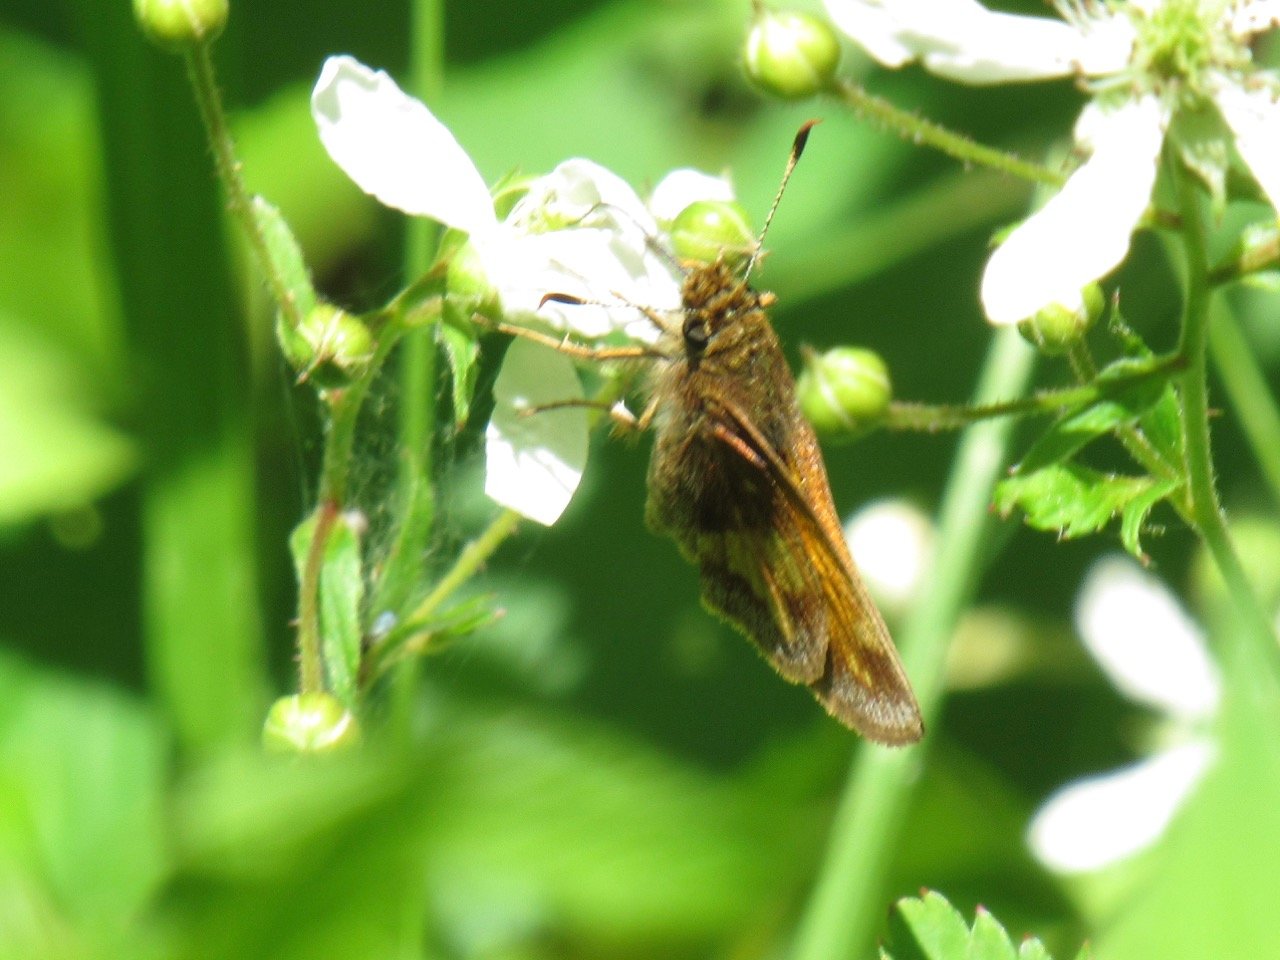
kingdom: Animalia
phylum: Arthropoda
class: Insecta
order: Lepidoptera
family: Hesperiidae
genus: Lon
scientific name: Lon hobomok
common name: Hobomok Skipper
